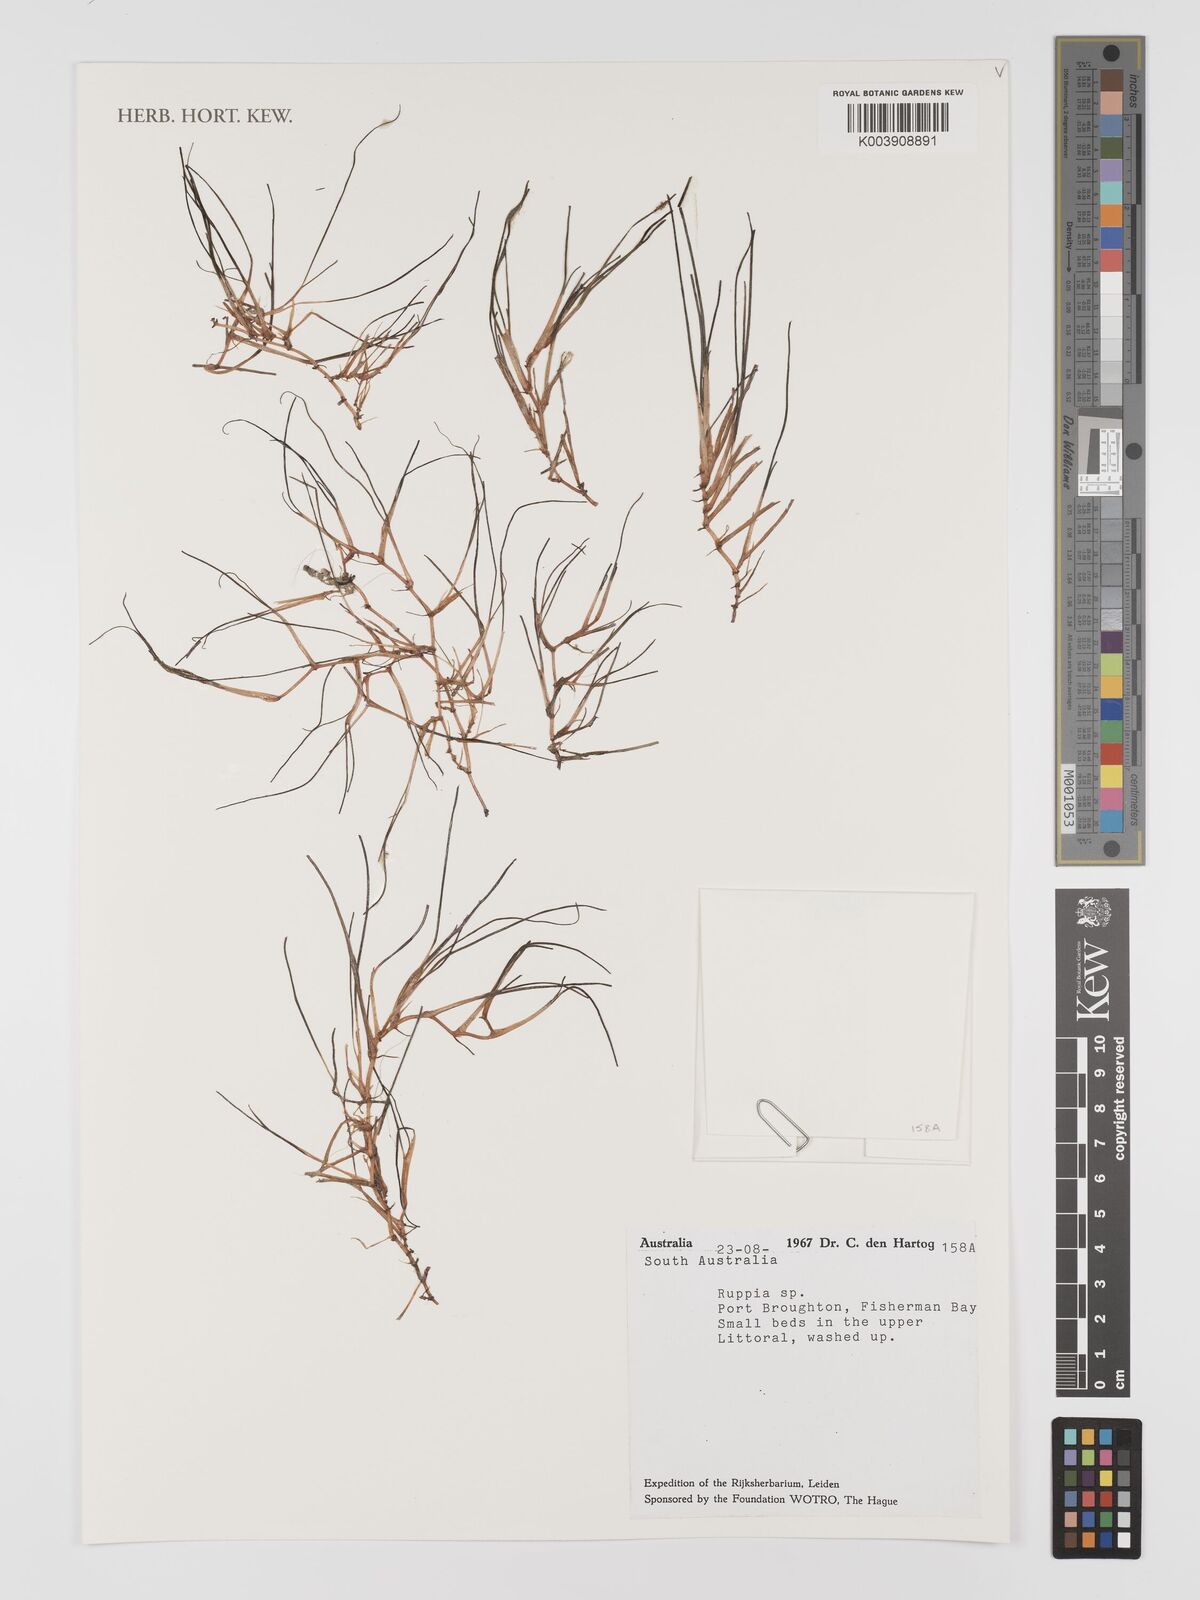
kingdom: Plantae
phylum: Tracheophyta
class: Liliopsida
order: Alismatales
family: Ruppiaceae
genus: Ruppia
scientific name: Ruppia
